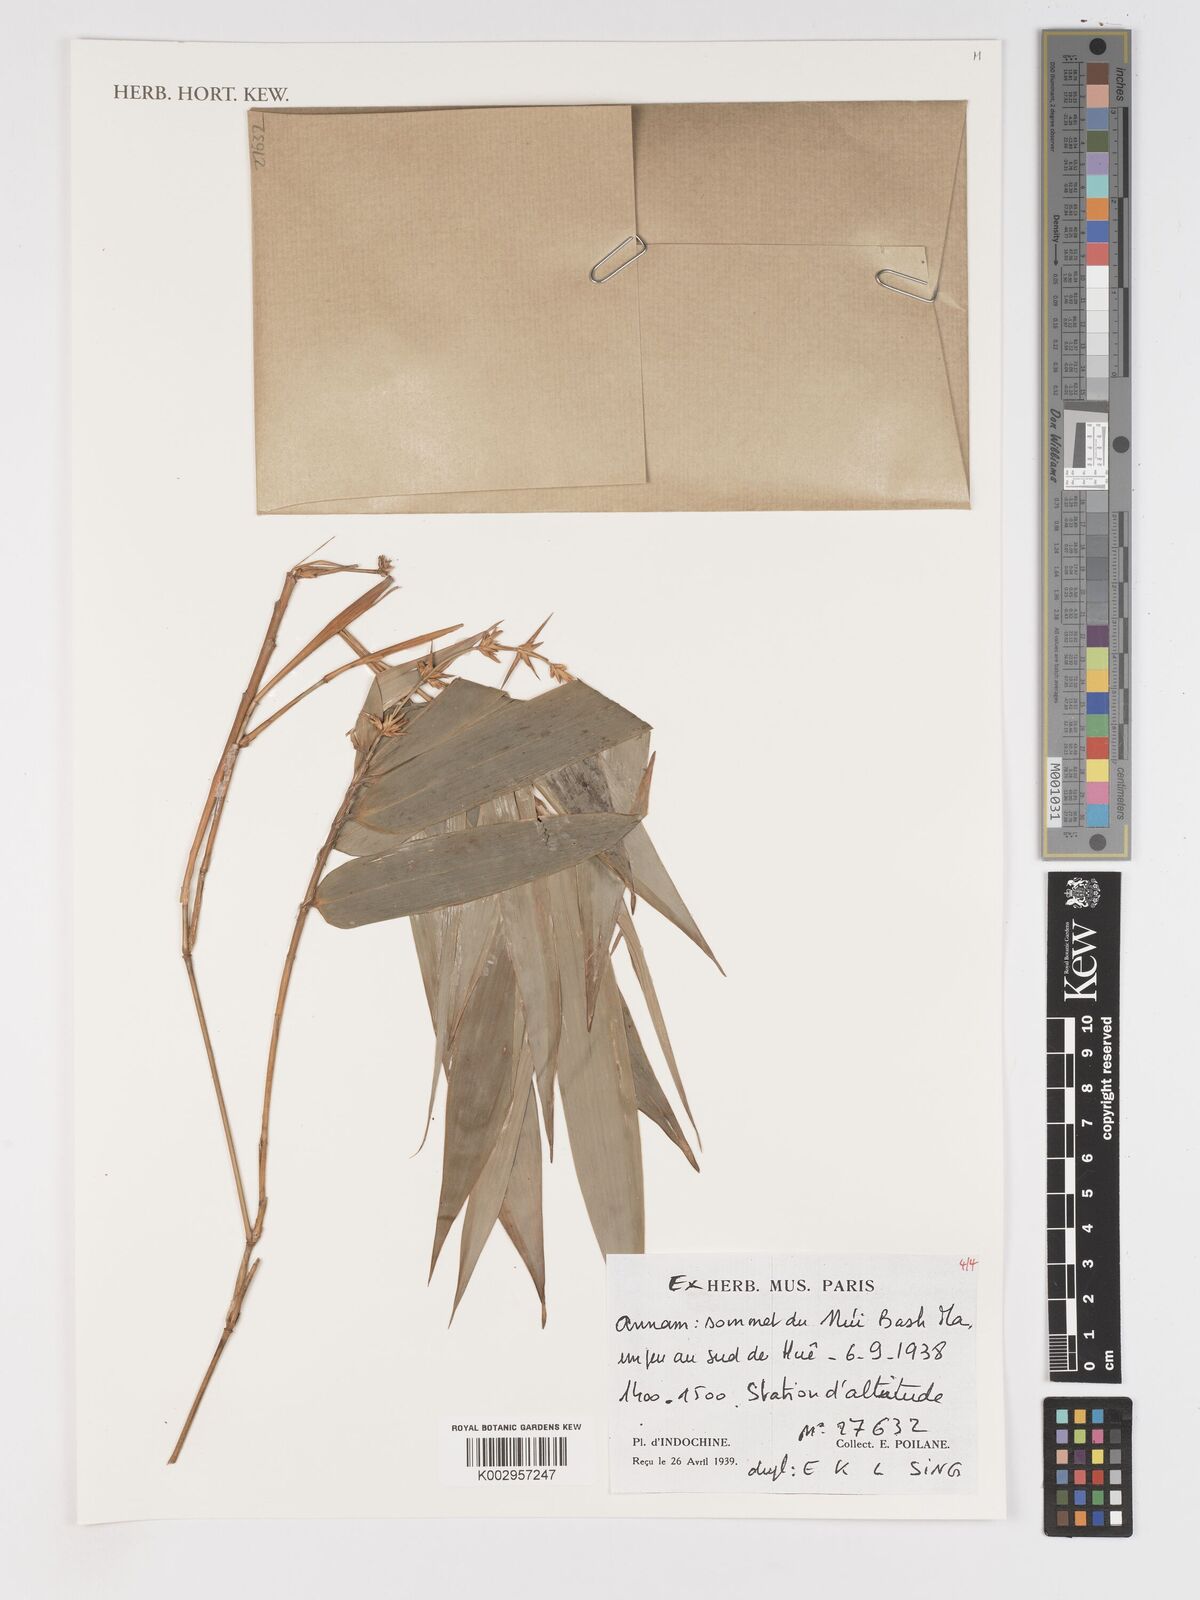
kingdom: Plantae
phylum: Tracheophyta
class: Liliopsida
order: Poales
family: Poaceae
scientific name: Poaceae
